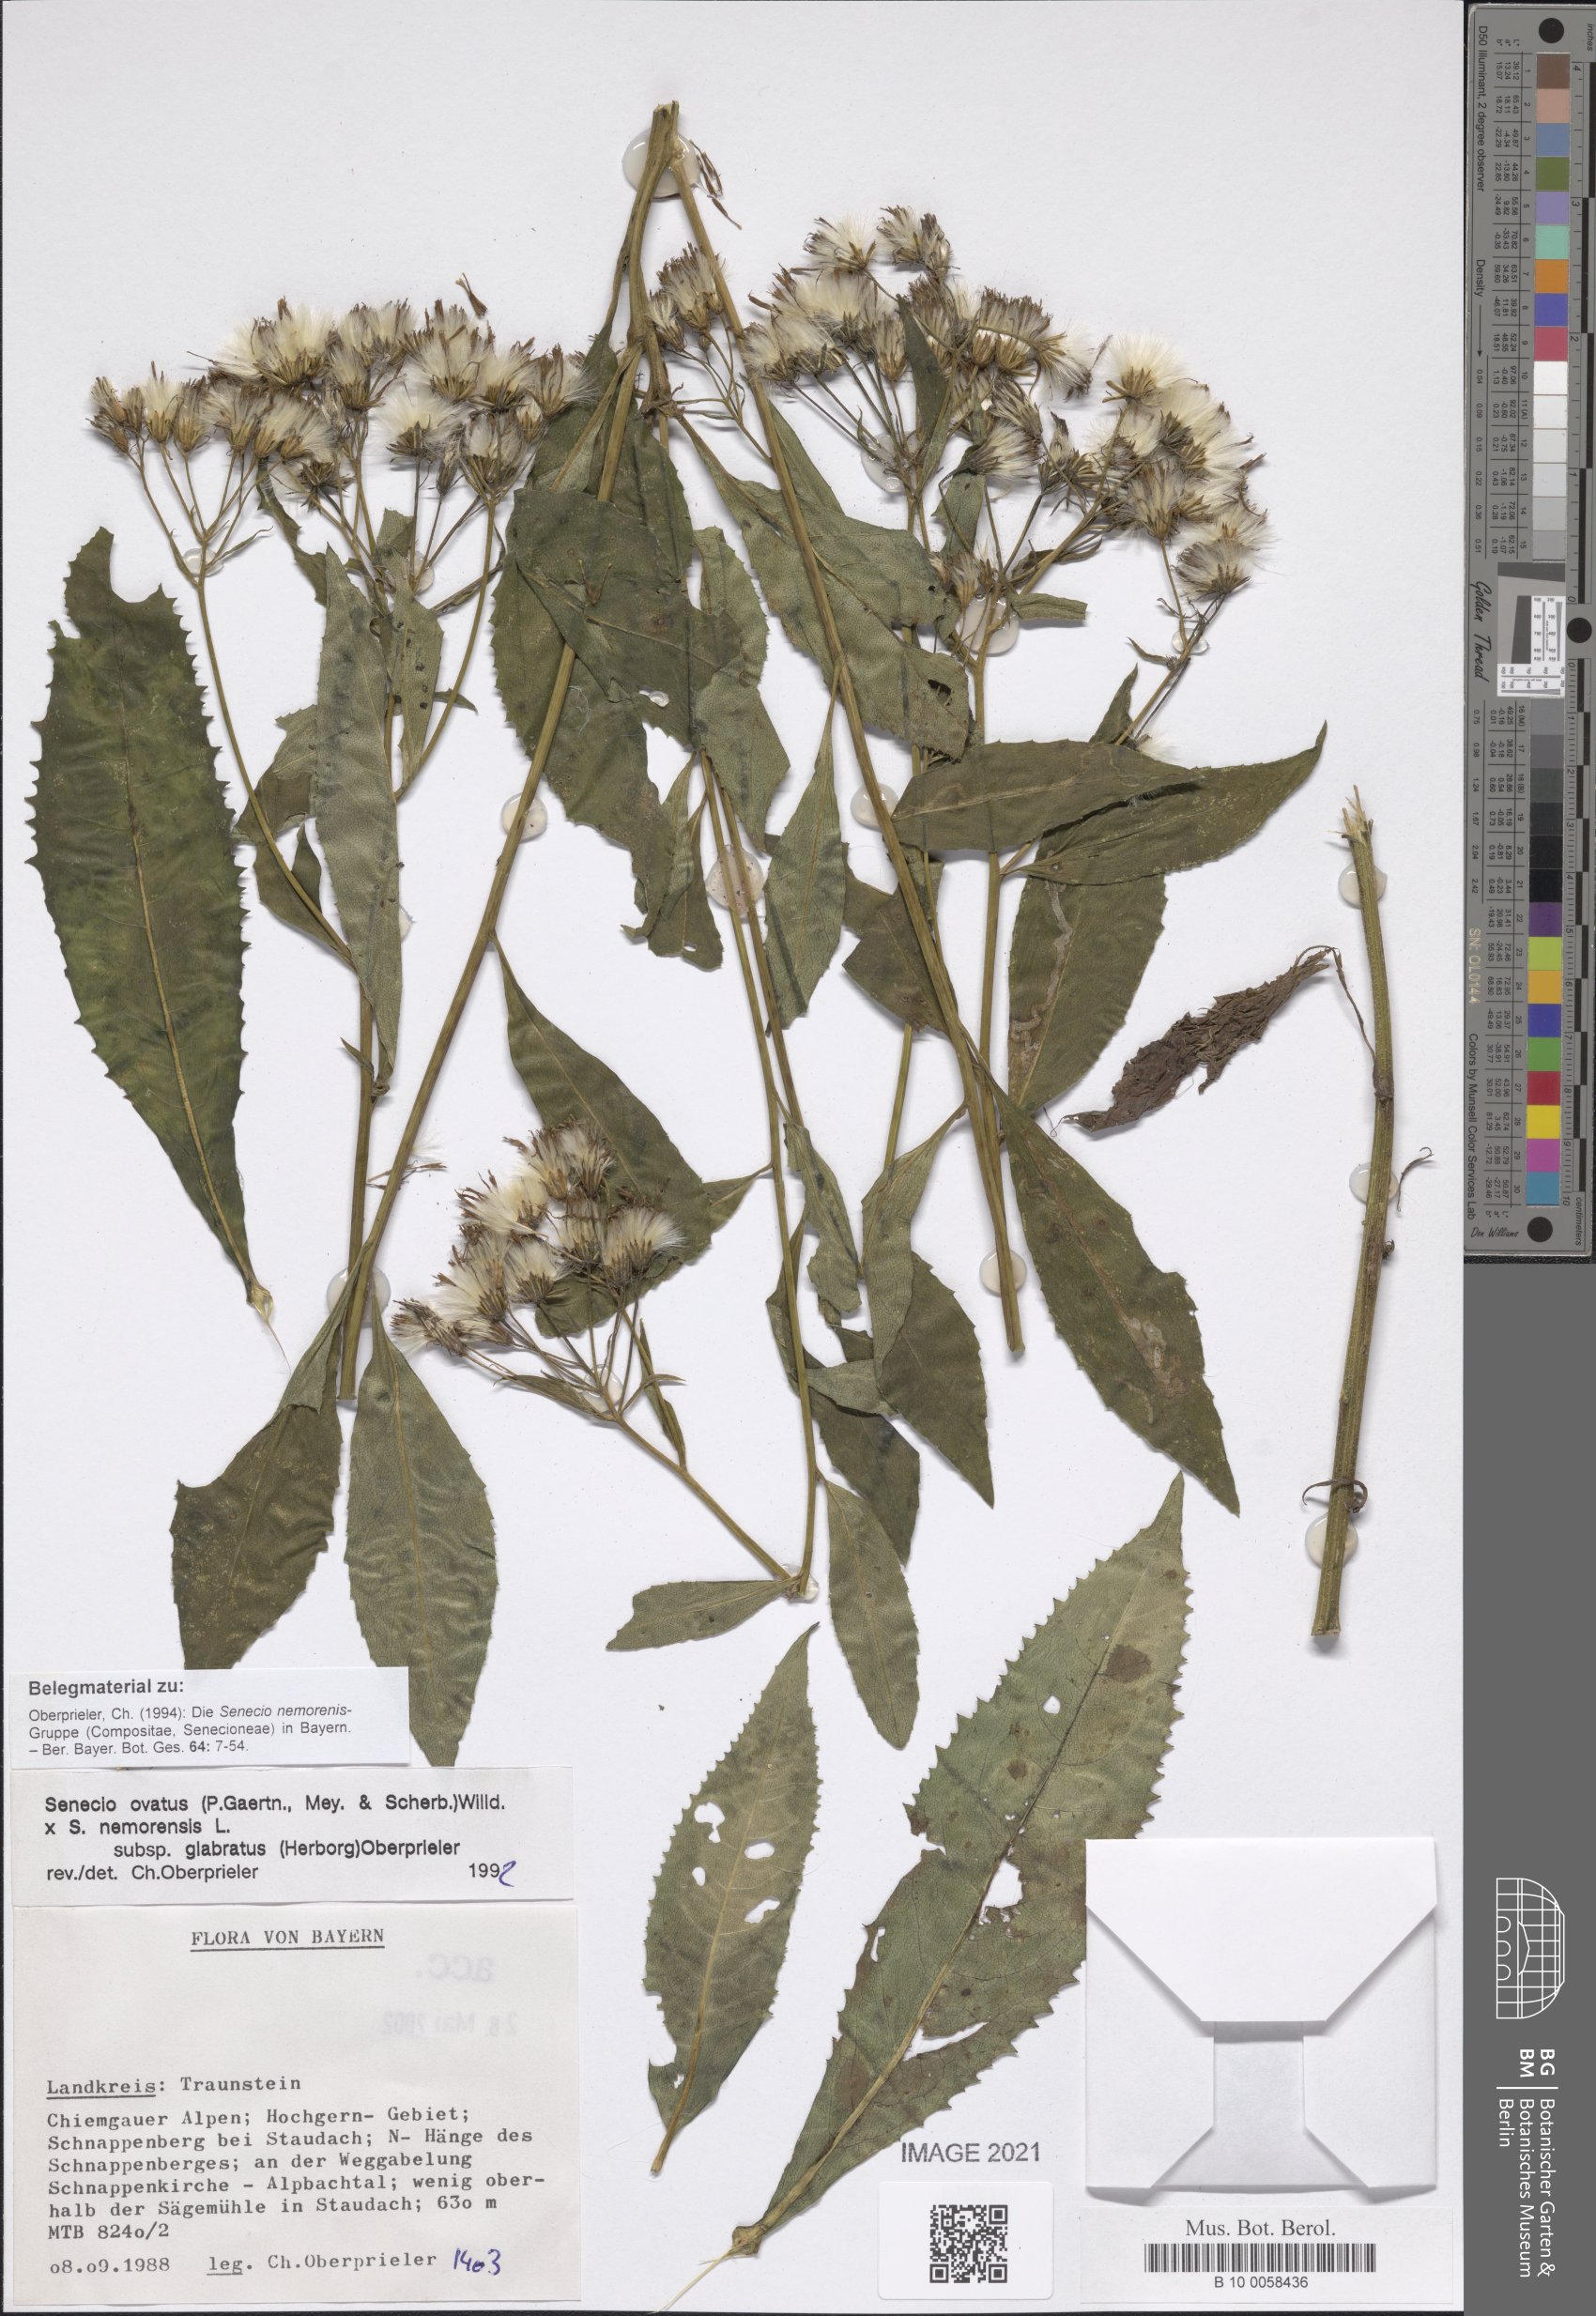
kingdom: Plantae
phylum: Tracheophyta
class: Magnoliopsida
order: Asterales
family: Asteraceae
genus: Senecio
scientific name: Senecio ovatus
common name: Wood ragwort
